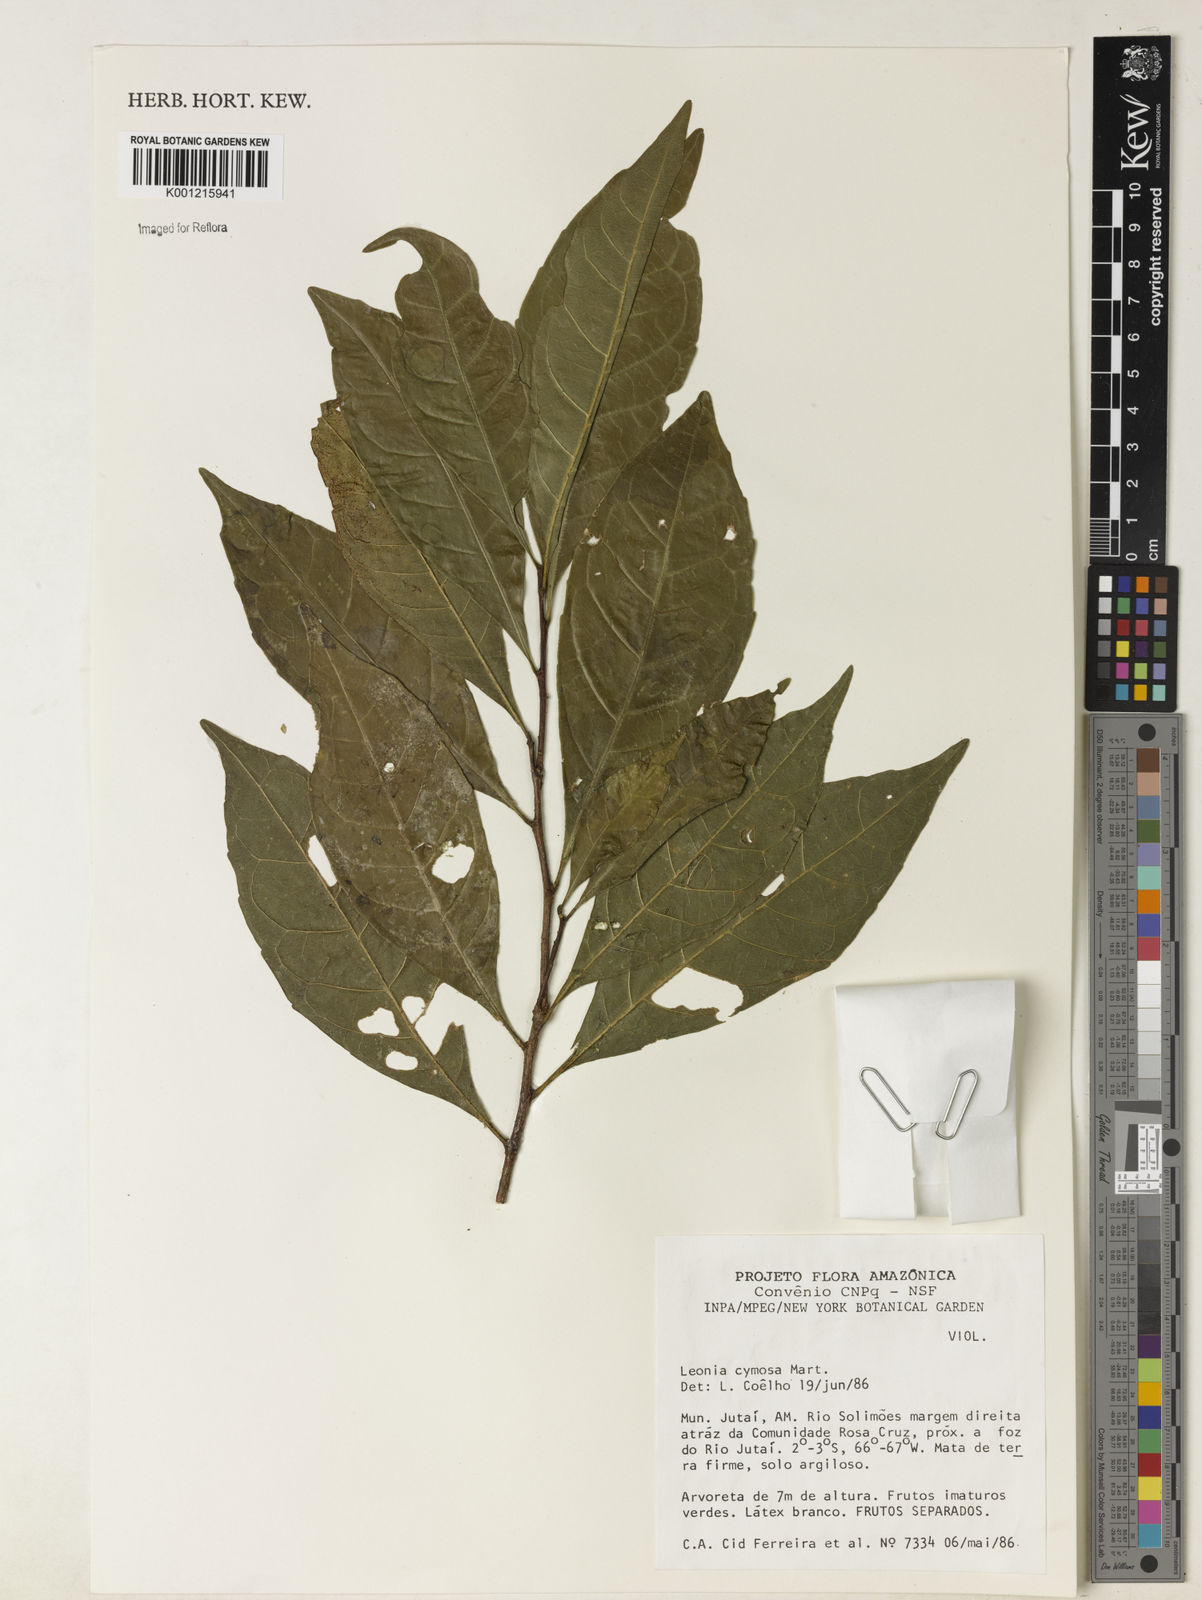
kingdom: Plantae
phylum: Tracheophyta
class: Magnoliopsida
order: Malpighiales
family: Violaceae
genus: Leonia
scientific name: Leonia cymosa
